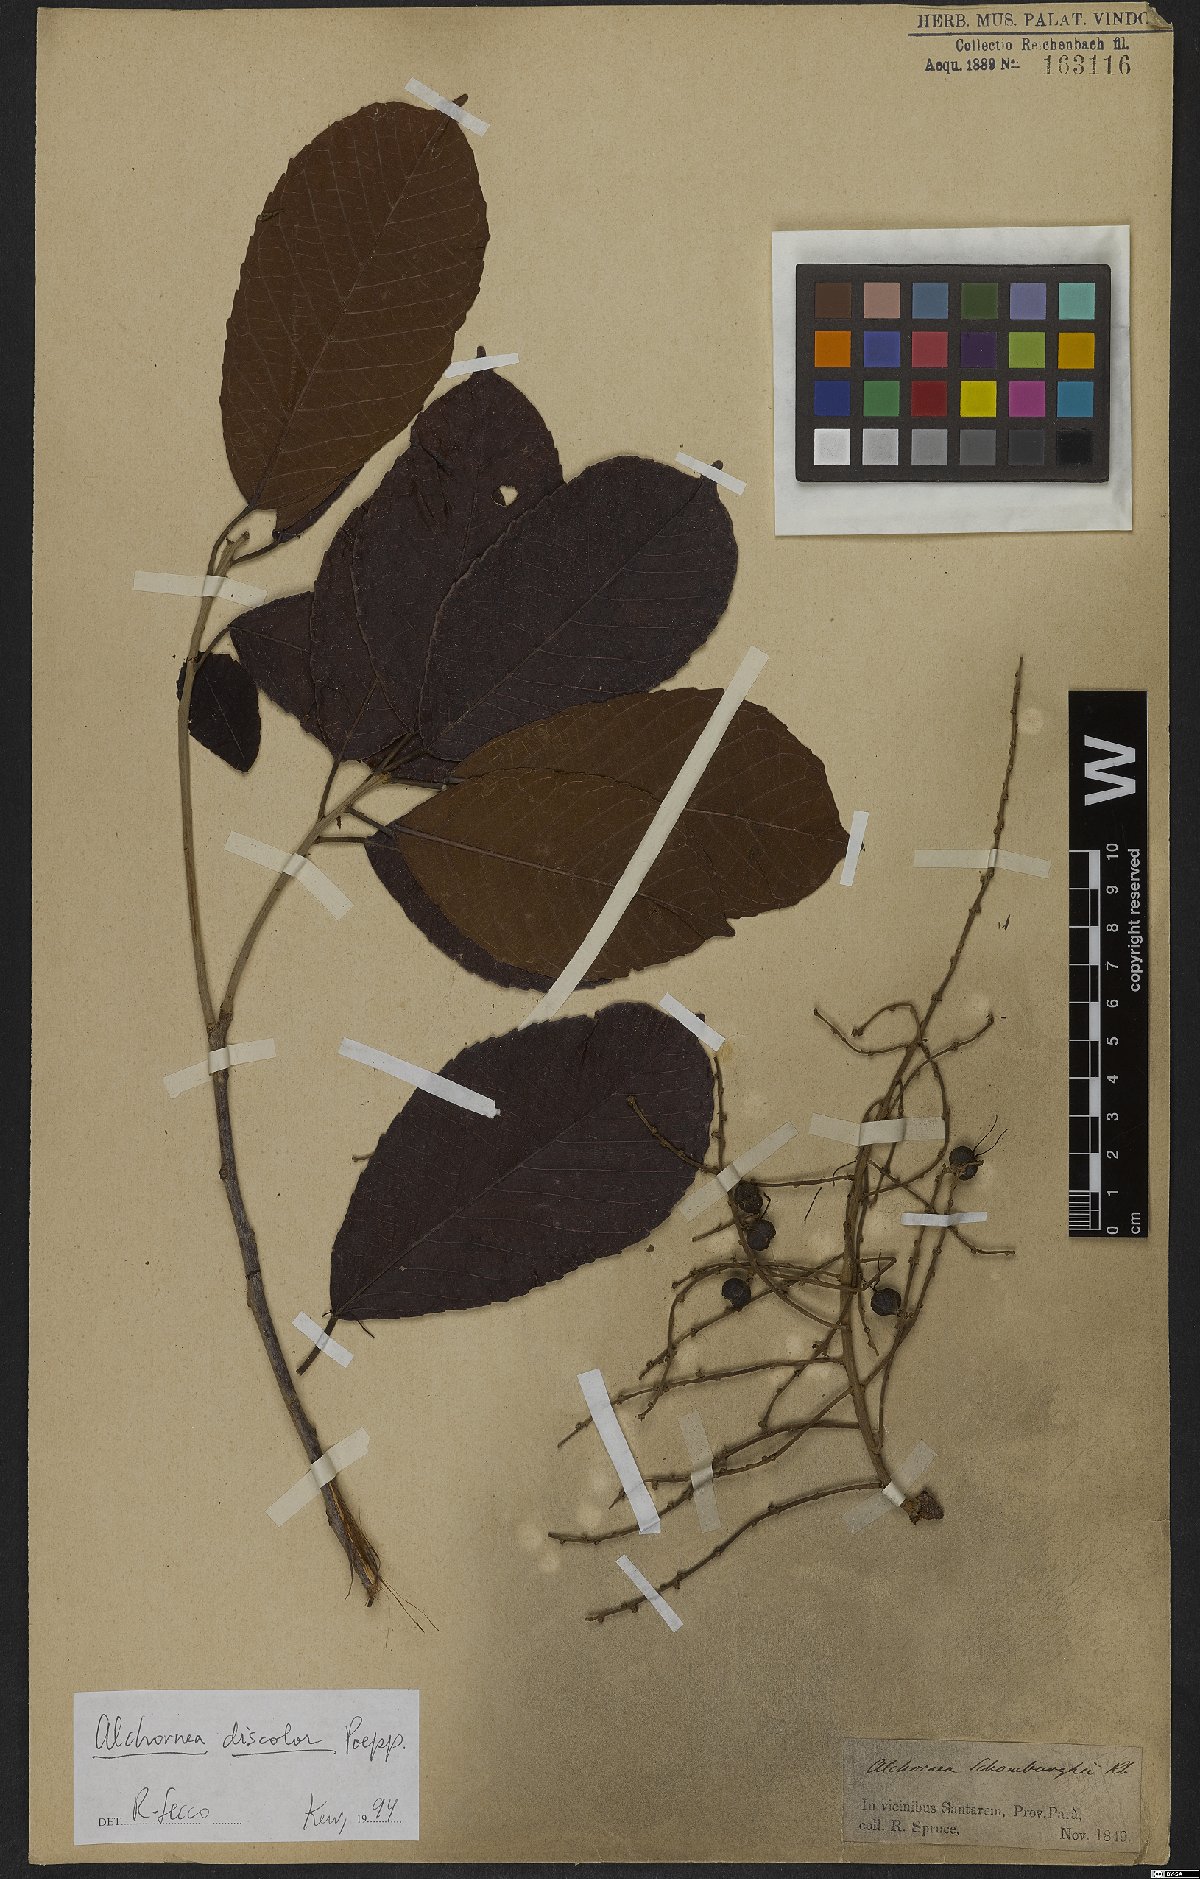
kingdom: Plantae
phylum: Tracheophyta
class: Magnoliopsida
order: Malpighiales
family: Euphorbiaceae
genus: Alchornea
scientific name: Alchornea discolor
